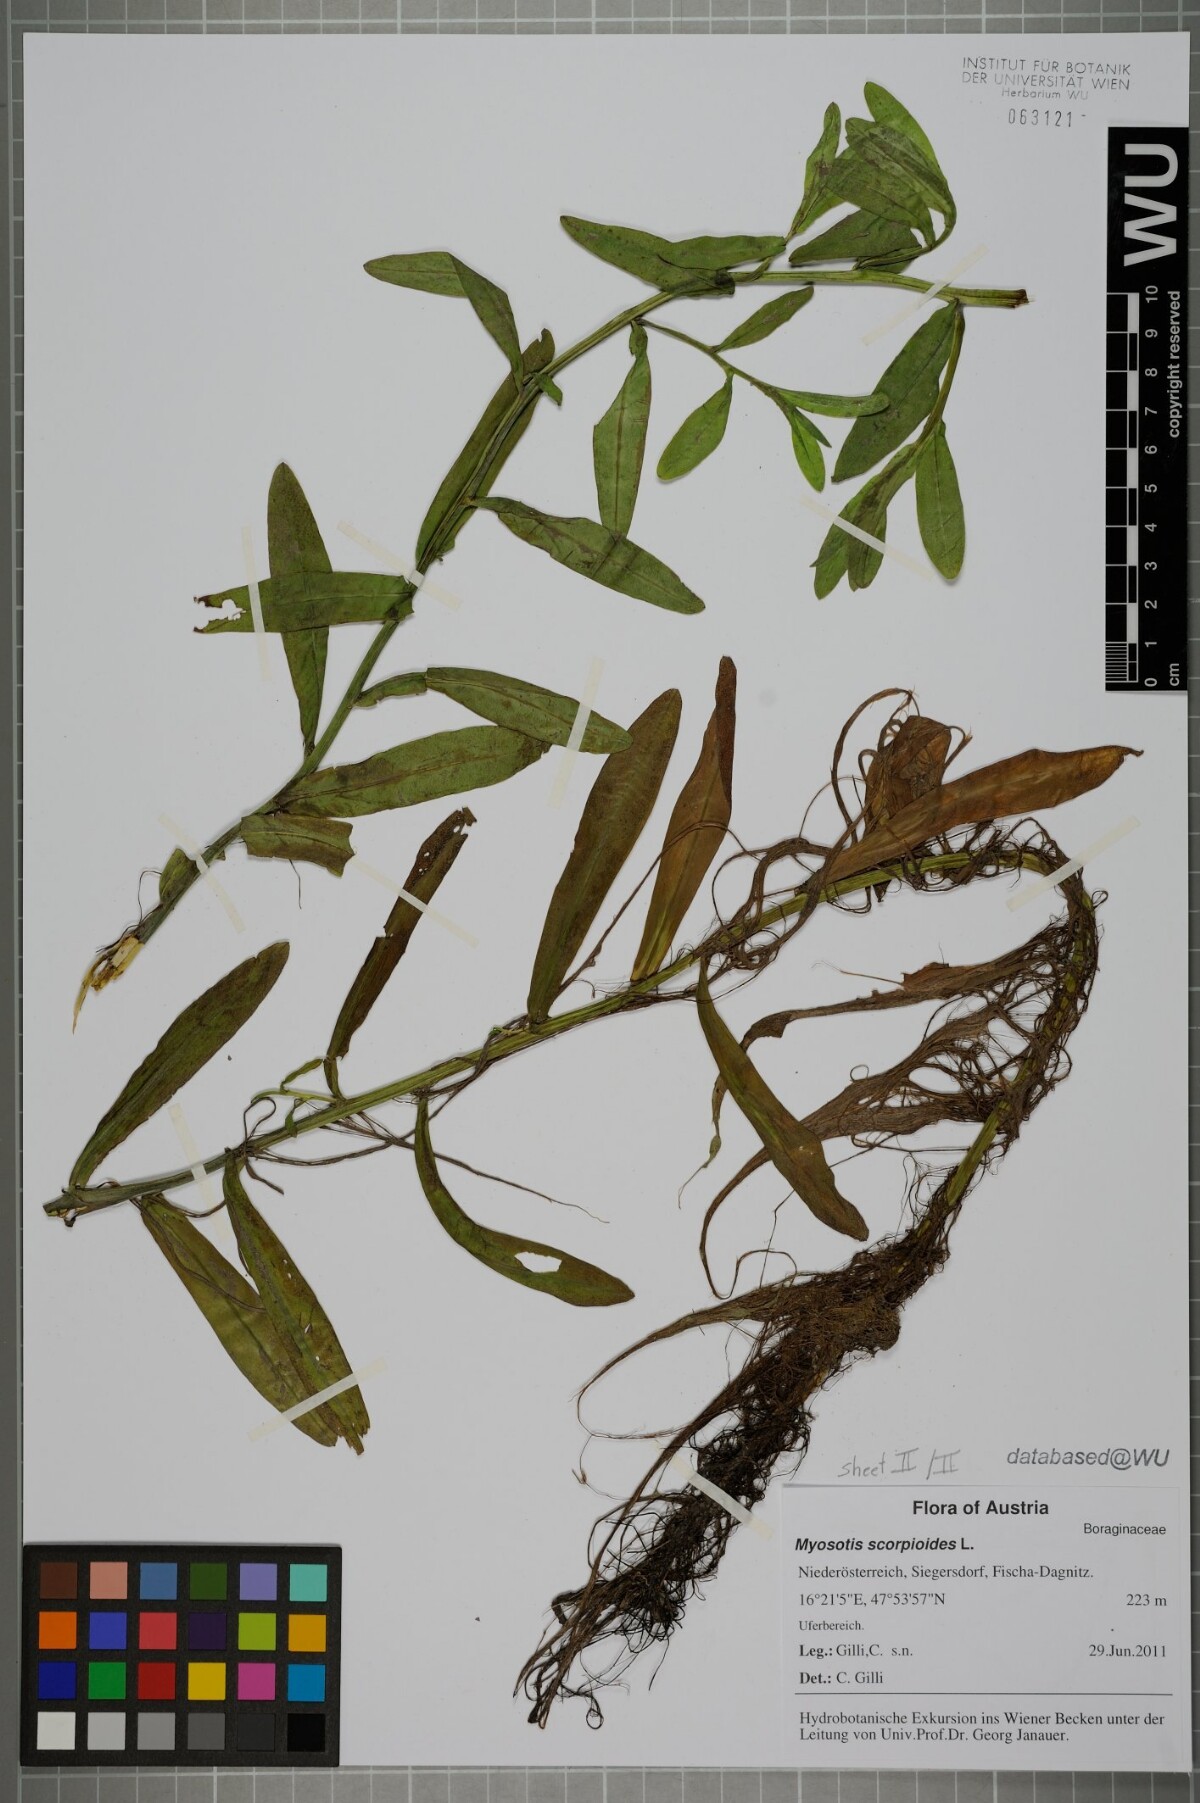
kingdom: Plantae
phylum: Tracheophyta
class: Magnoliopsida
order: Boraginales
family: Boraginaceae
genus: Myosotis
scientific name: Myosotis scorpioides
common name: Water forget-me-not
